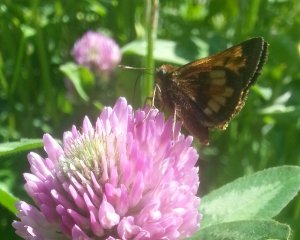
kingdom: Animalia
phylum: Arthropoda
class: Insecta
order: Lepidoptera
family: Hesperiidae
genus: Lon
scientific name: Lon hobomok
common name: Hobomok Skipper
